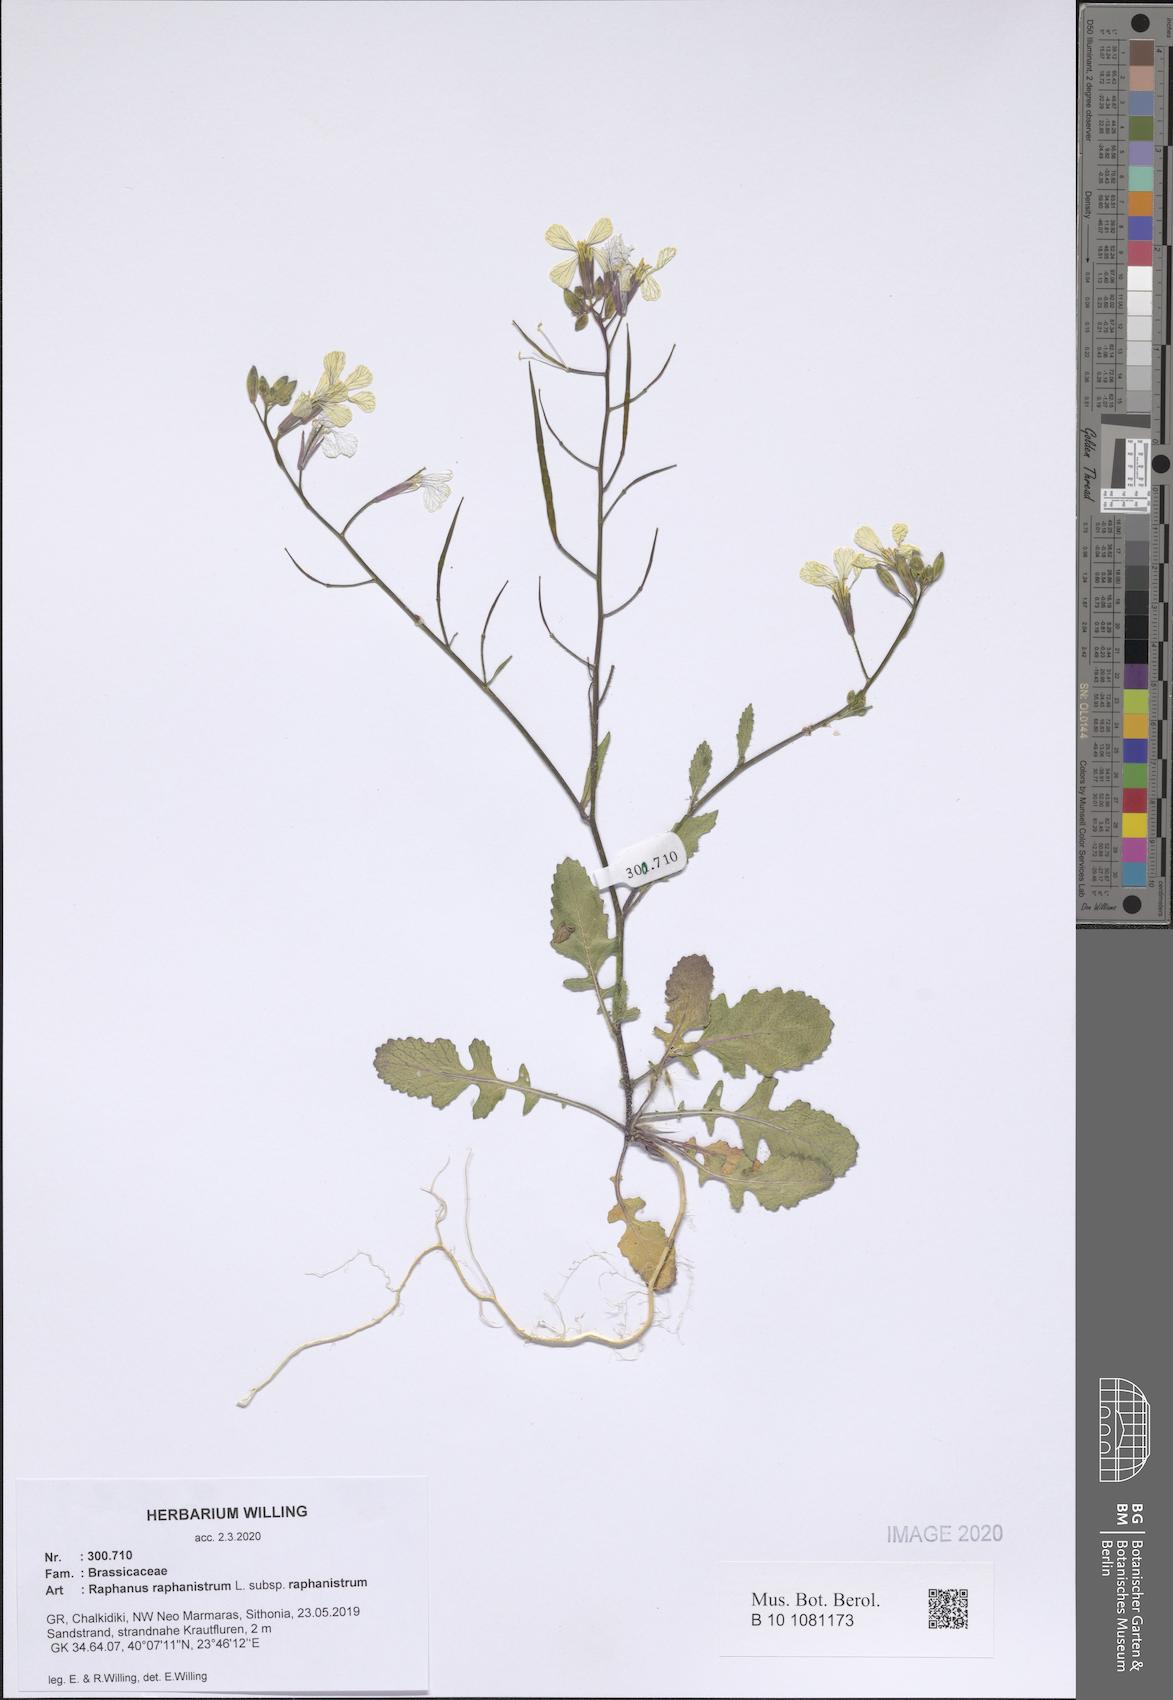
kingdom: Plantae
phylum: Tracheophyta
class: Magnoliopsida
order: Brassicales
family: Brassicaceae
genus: Raphanus
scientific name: Raphanus raphanistrum
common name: Wild radish
